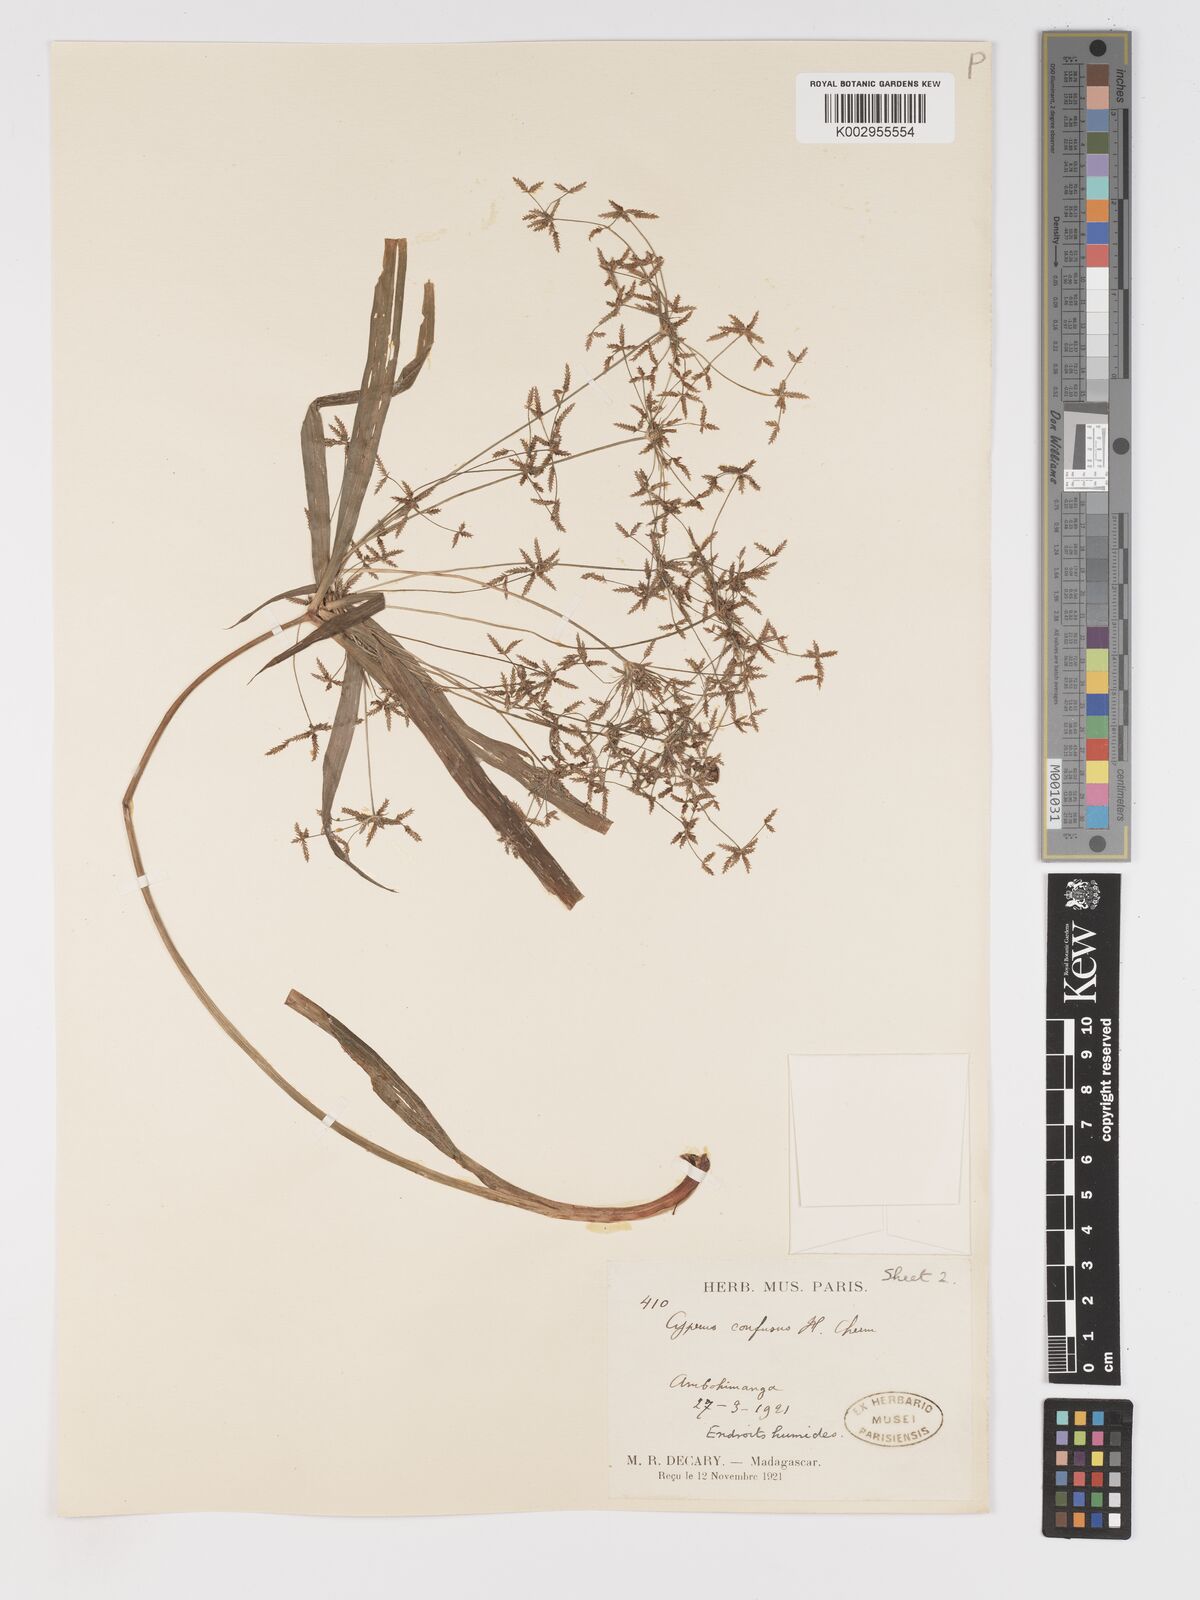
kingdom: Plantae
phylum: Tracheophyta
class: Liliopsida
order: Poales
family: Cyperaceae
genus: Cyperus
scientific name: Cyperus longifolius
